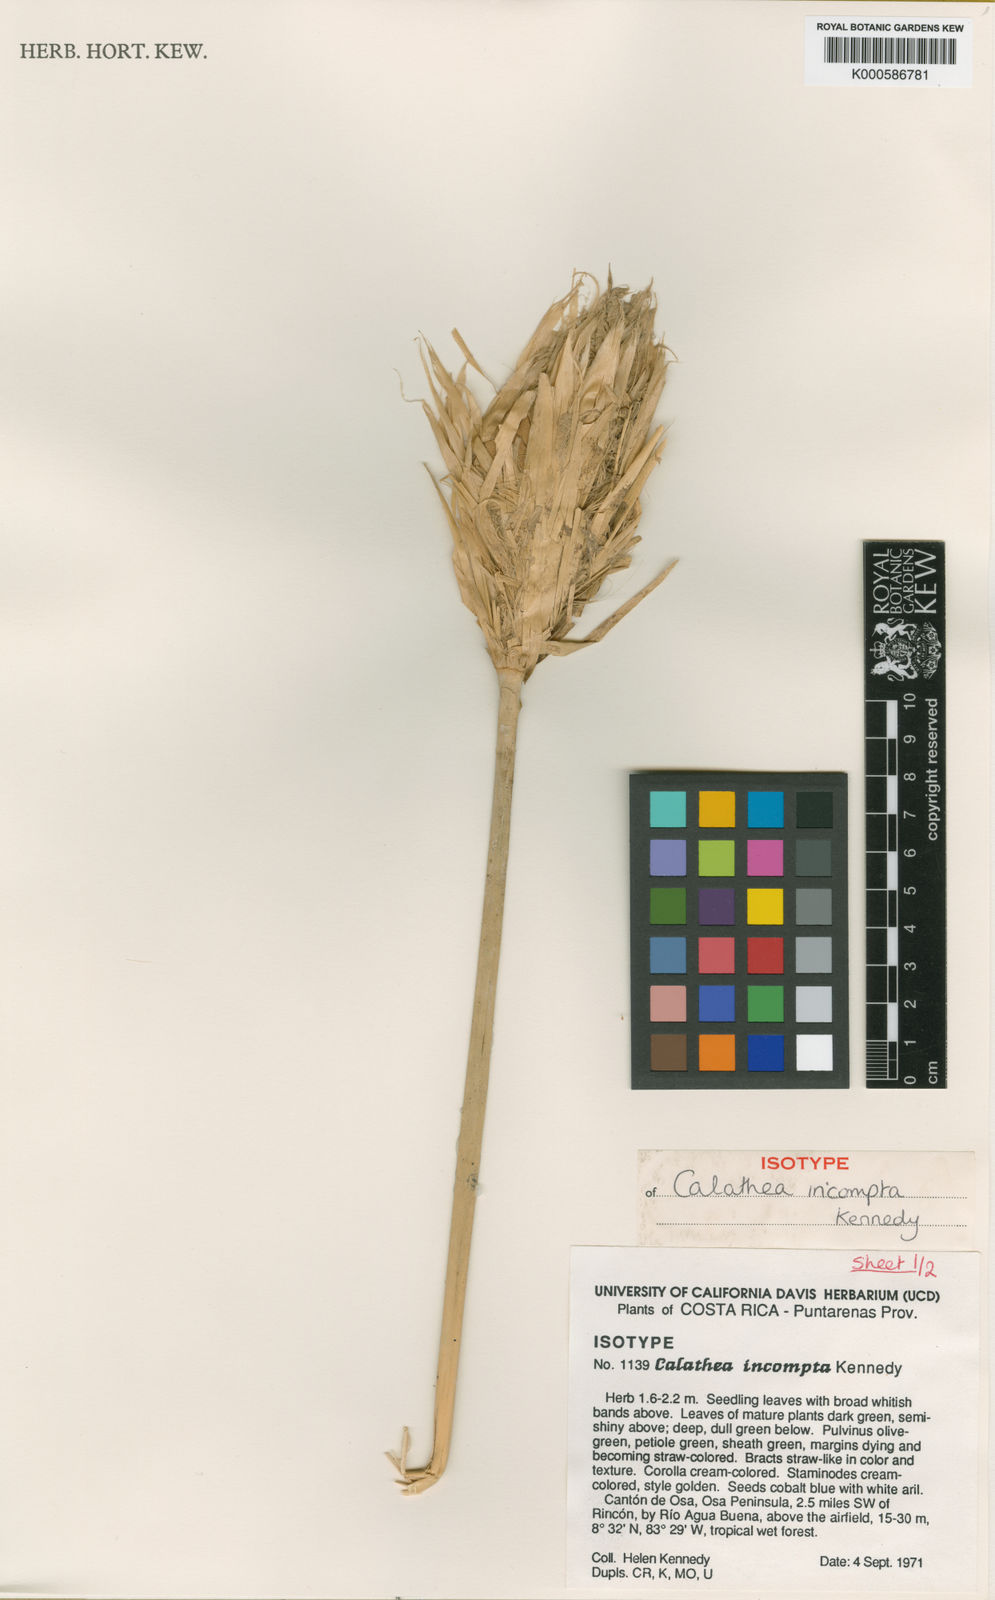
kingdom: Plantae
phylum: Tracheophyta
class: Liliopsida
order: Zingiberales
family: Marantaceae
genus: Goeppertia
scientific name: Goeppertia incompta
